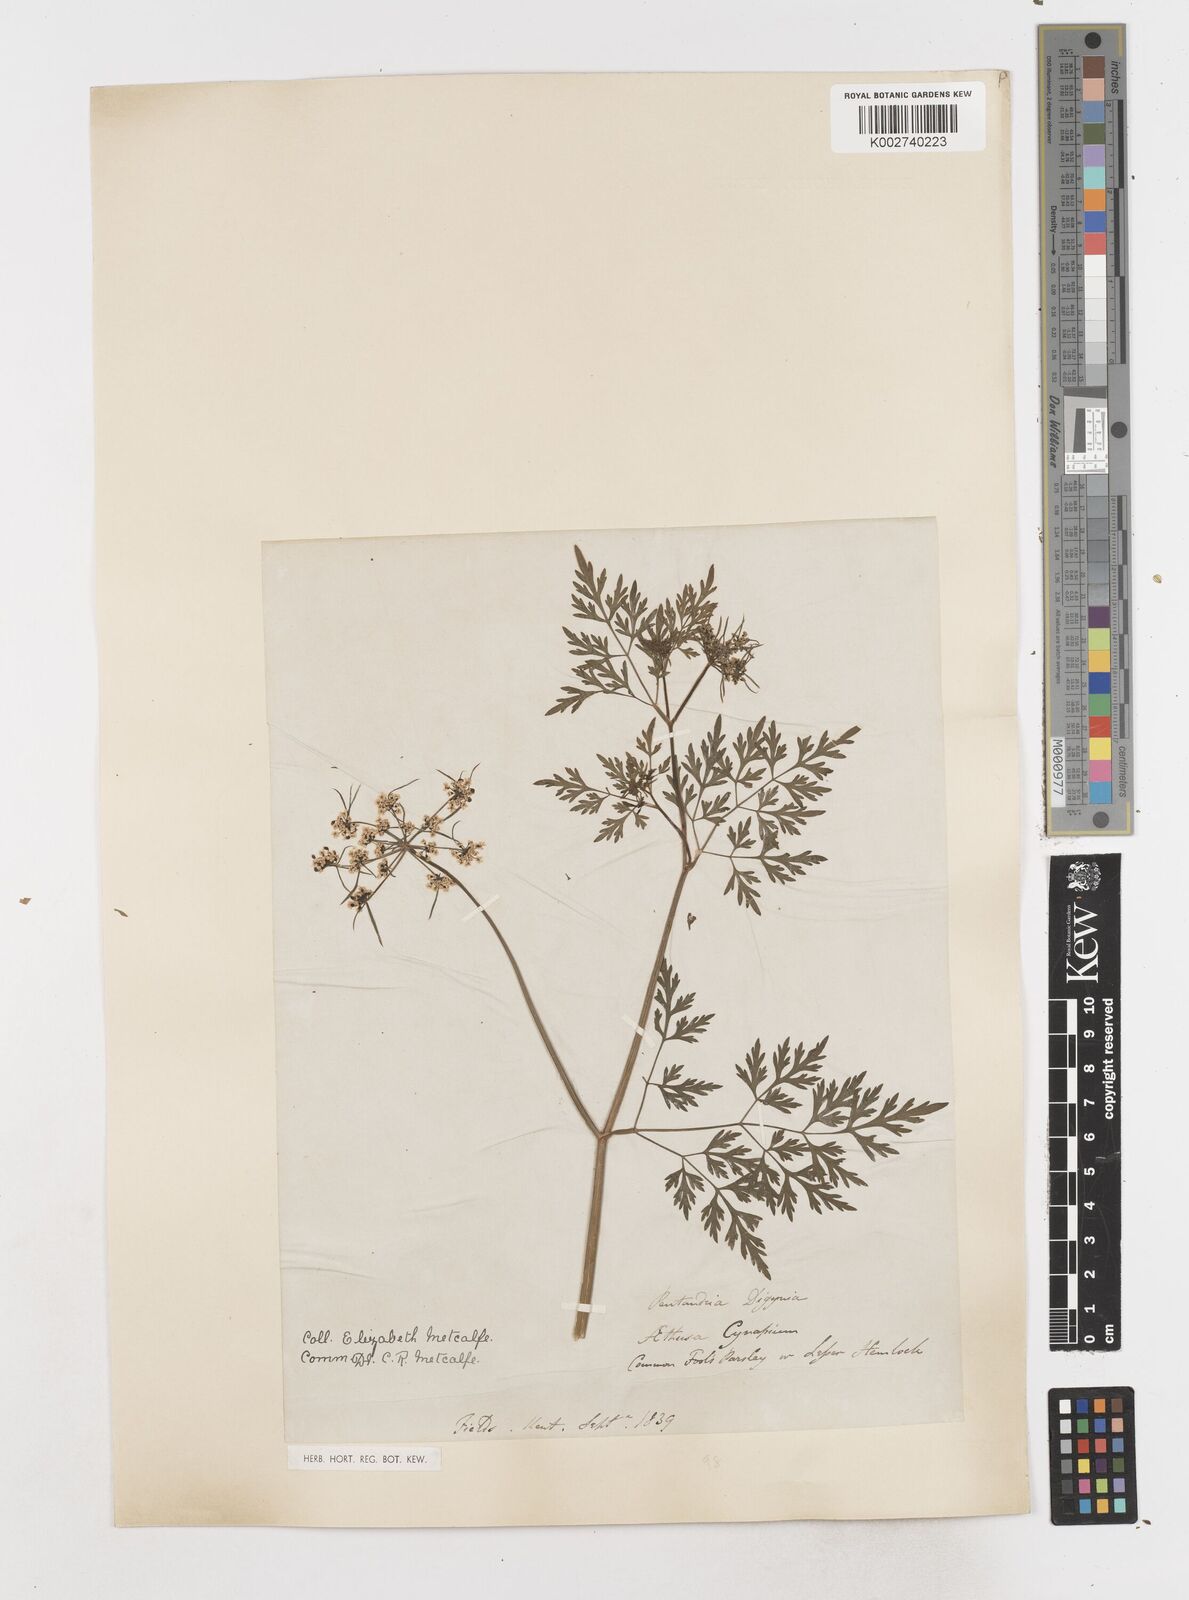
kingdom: Plantae
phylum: Tracheophyta
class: Magnoliopsida
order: Apiales
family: Apiaceae
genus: Aethusa
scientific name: Aethusa cynapium
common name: Fool's parsley
